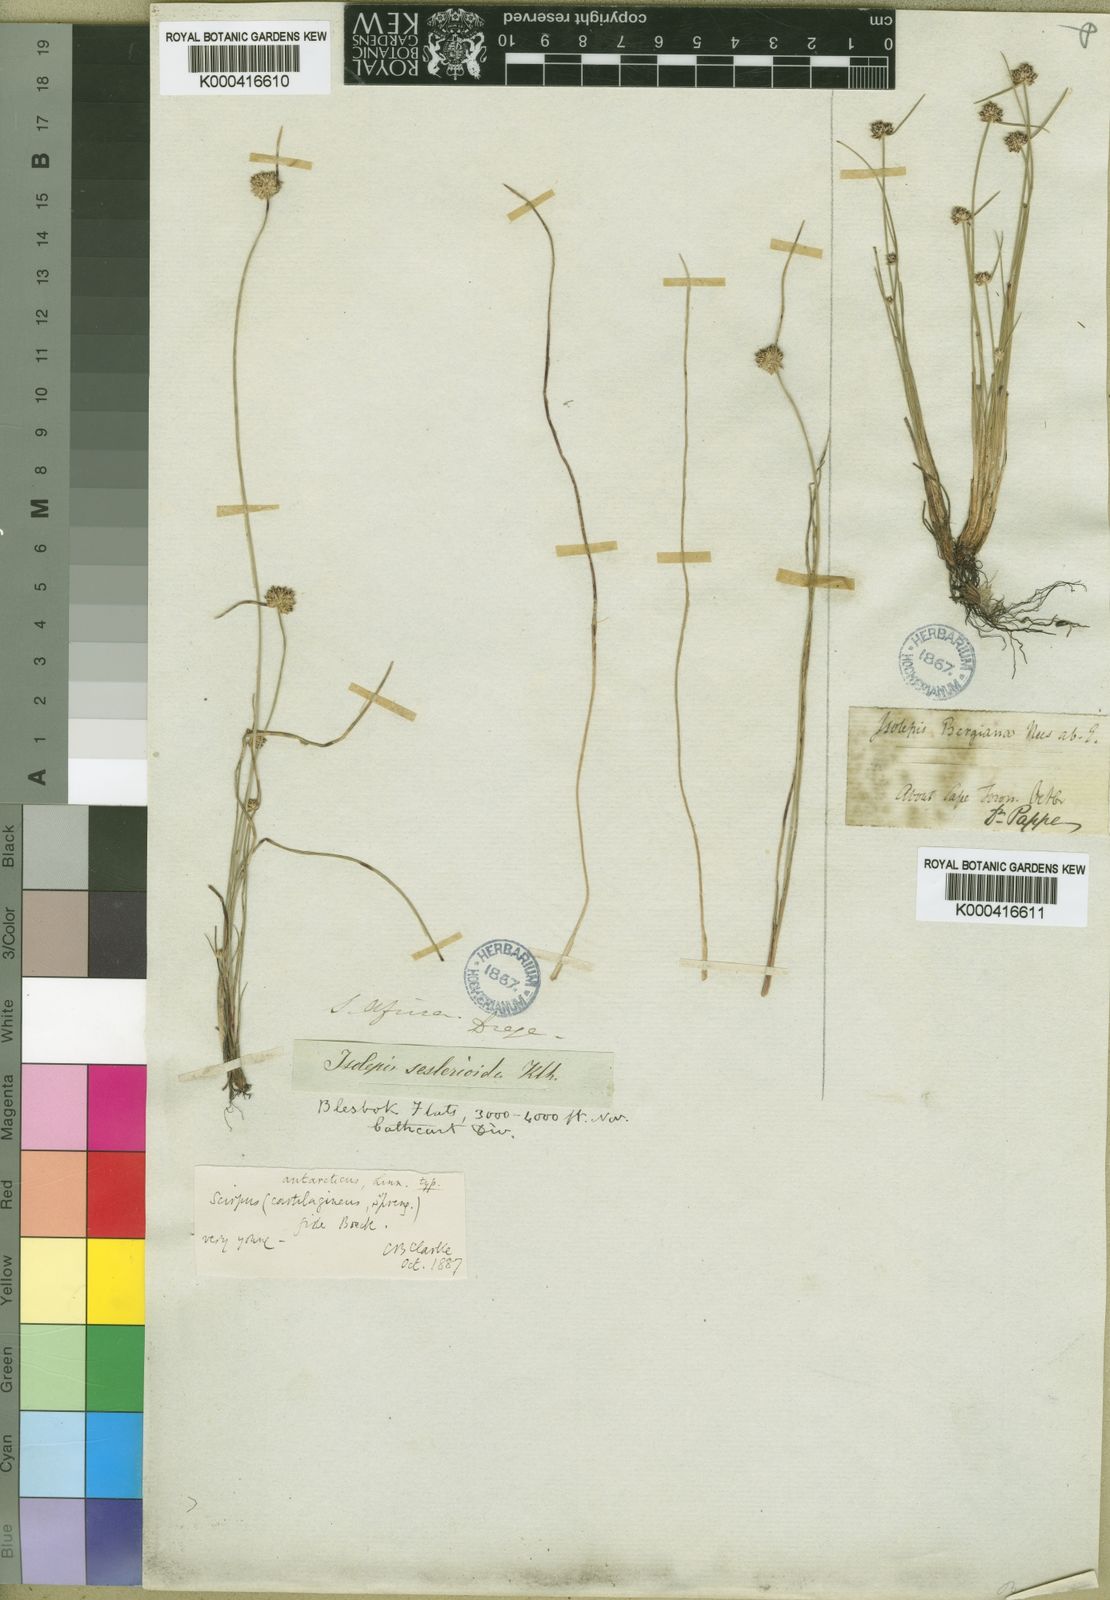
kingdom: Plantae
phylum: Tracheophyta
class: Liliopsida
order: Poales
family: Cyperaceae
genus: Isolepis
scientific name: Isolepis antarctica
